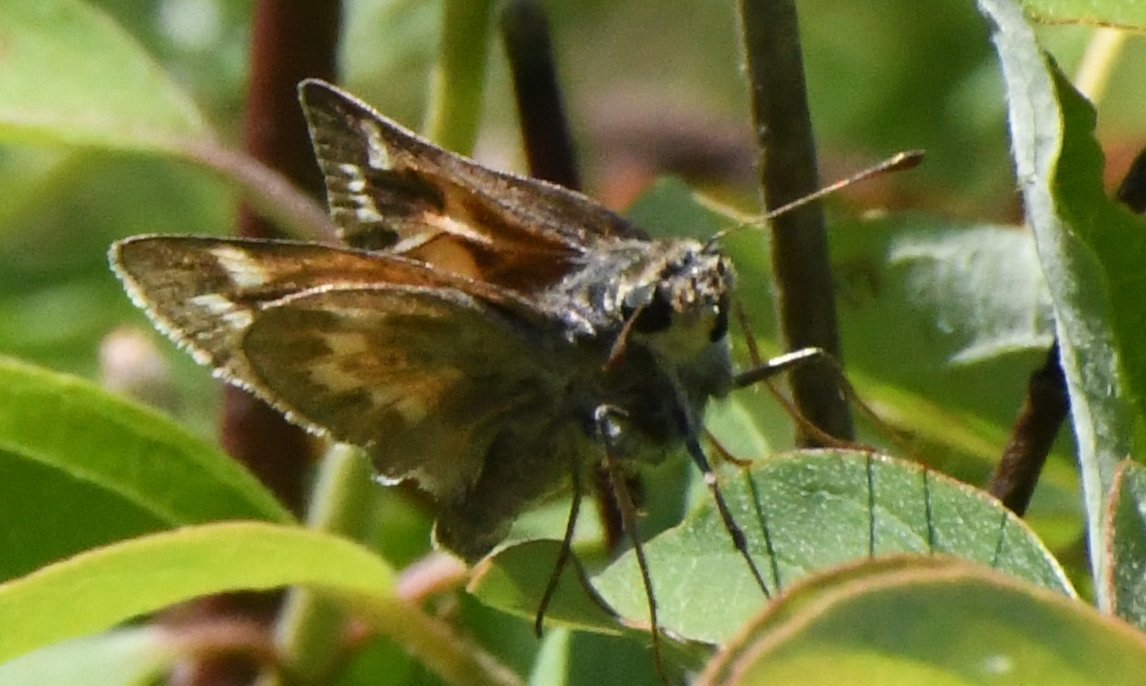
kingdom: Animalia
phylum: Arthropoda
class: Insecta
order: Lepidoptera
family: Hesperiidae
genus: Hesperia
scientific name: Hesperia sassacus
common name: Sassacus Skipper
